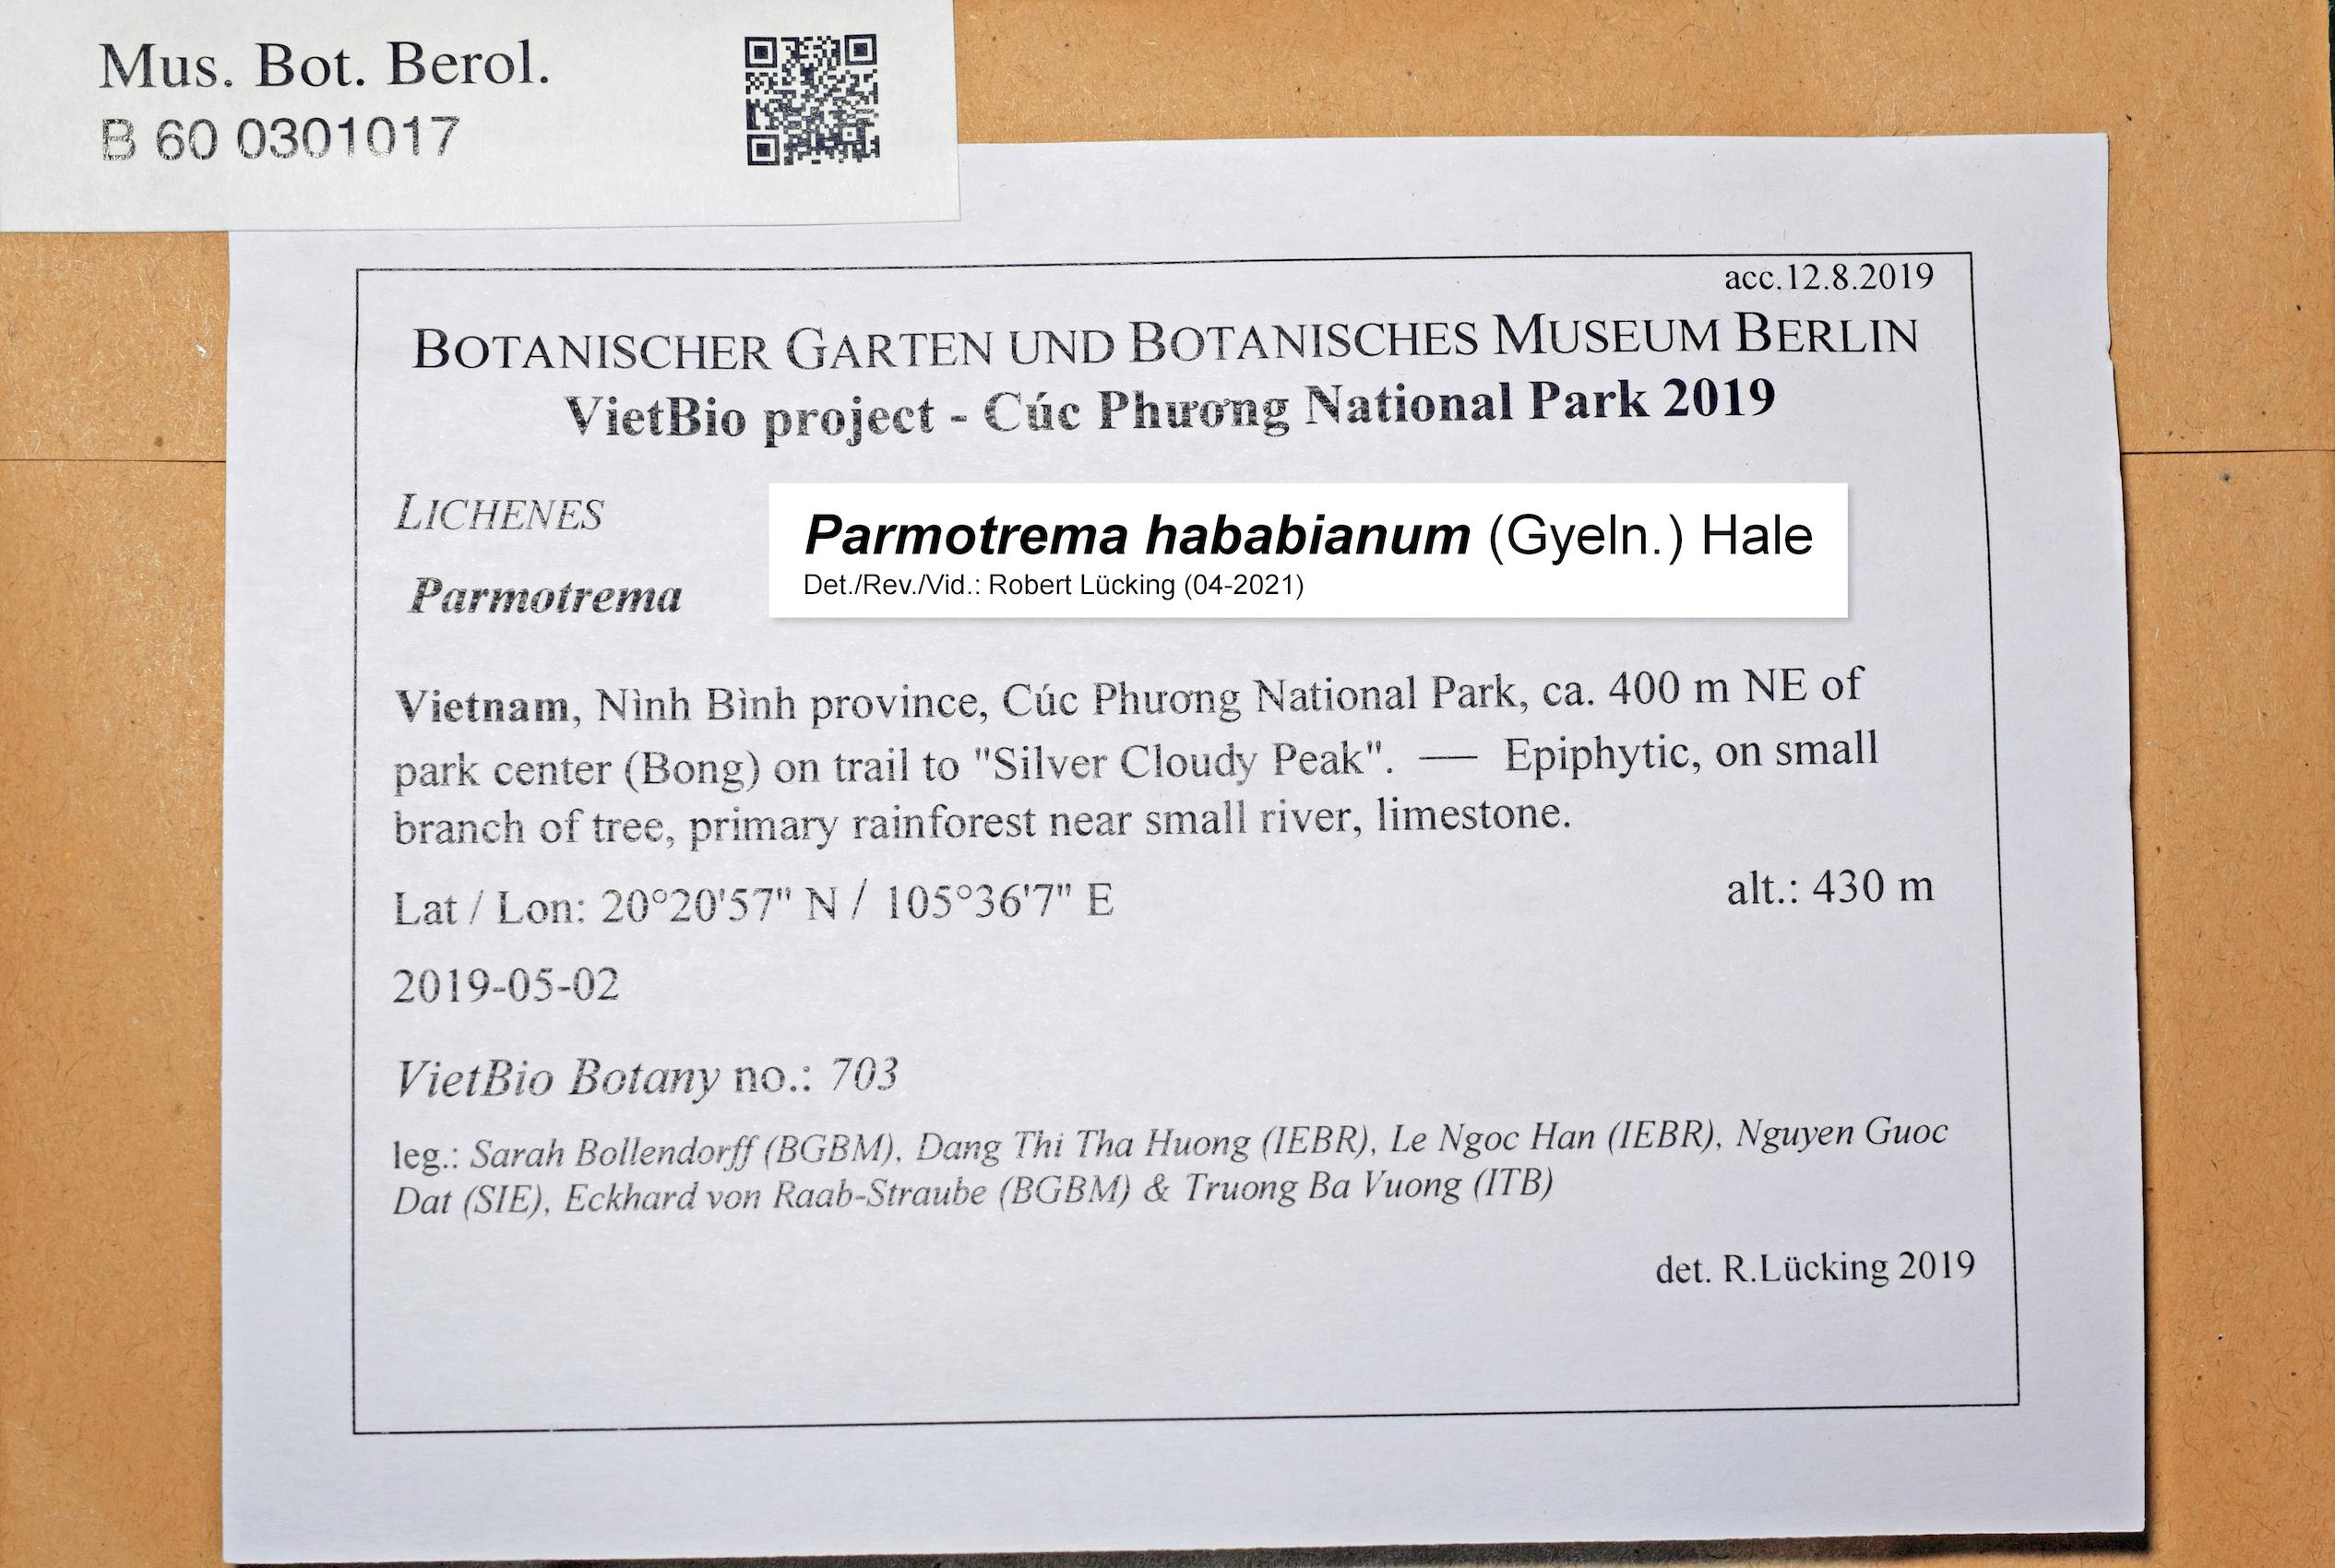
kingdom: Fungi
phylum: Ascomycota
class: Lecanoromycetes
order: Lecanorales
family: Parmeliaceae
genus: Parmotrema
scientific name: Parmotrema
